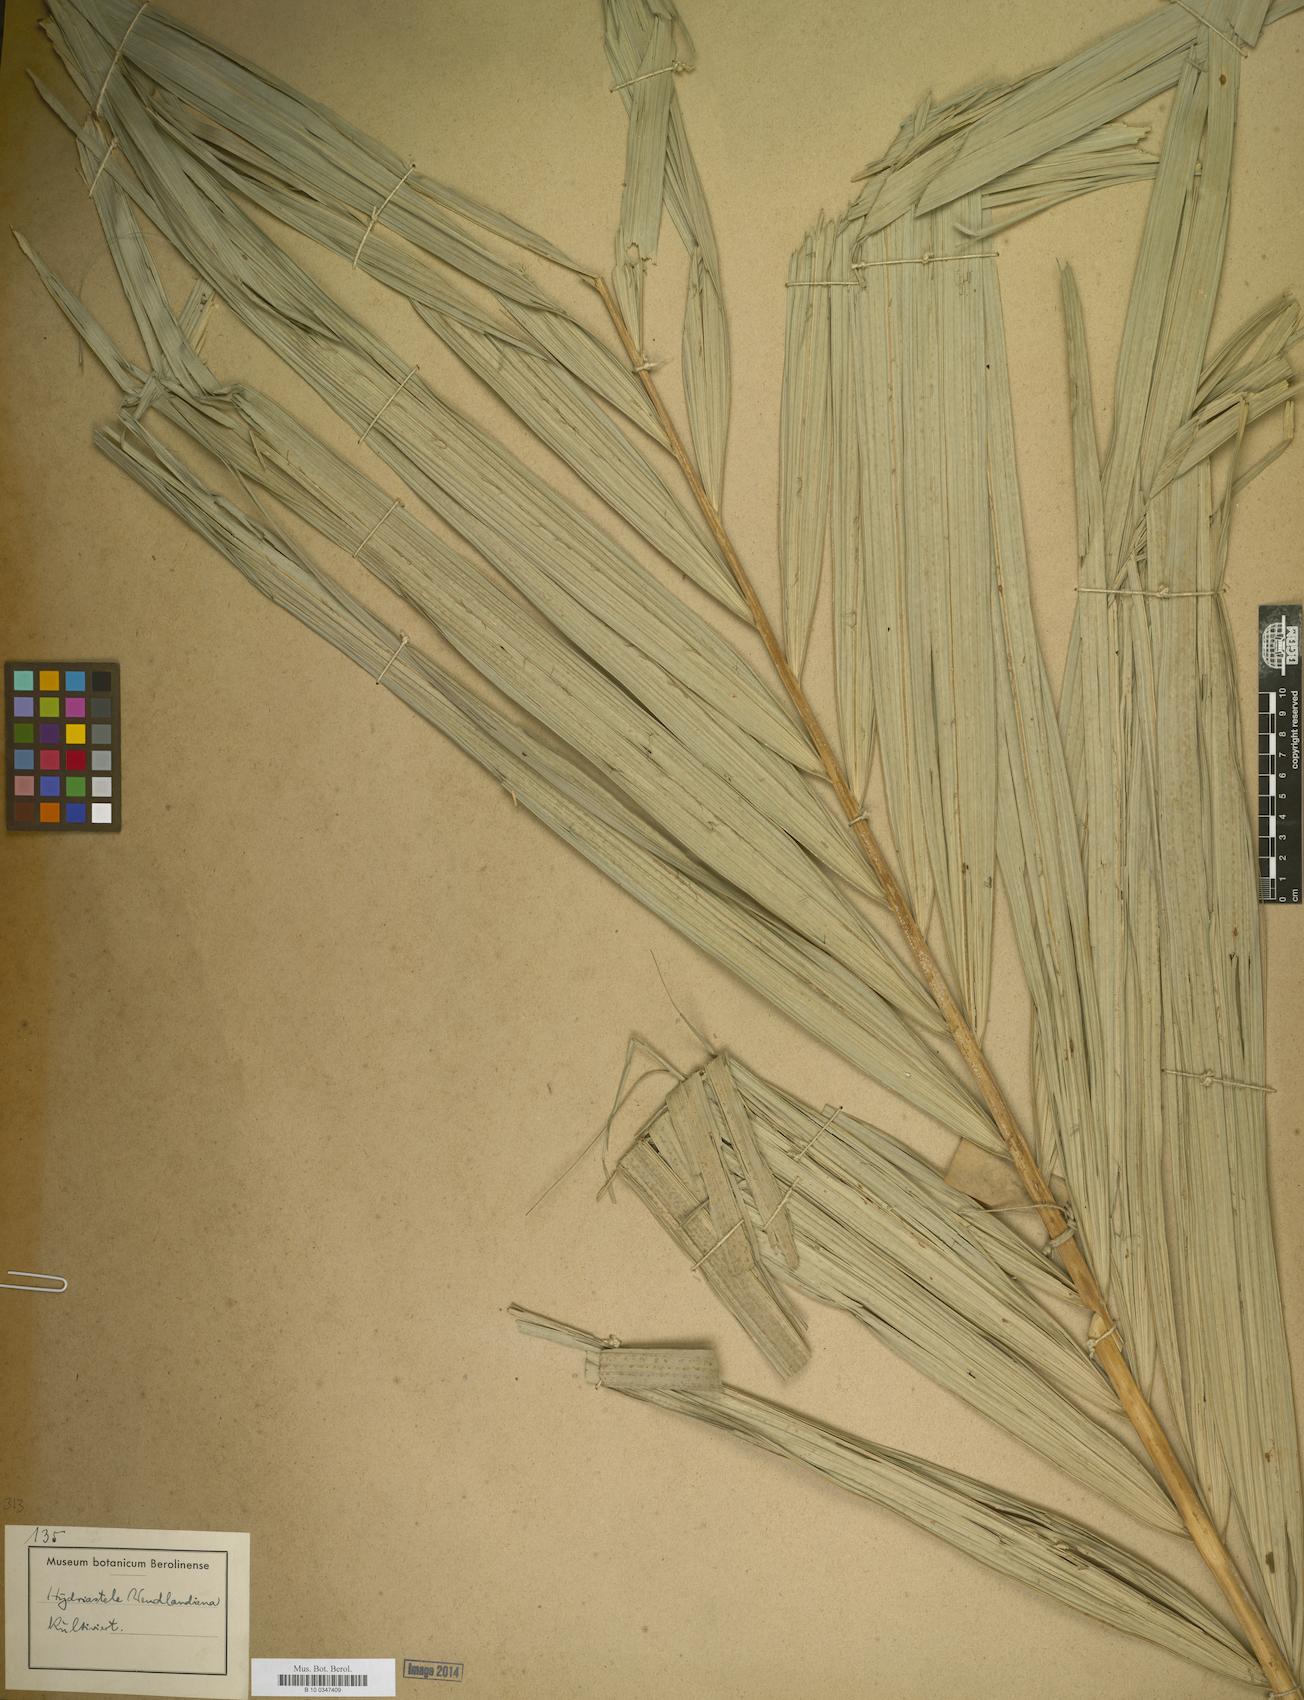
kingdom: Plantae
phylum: Tracheophyta
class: Liliopsida
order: Arecales
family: Arecaceae
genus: Hydriastele
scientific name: Hydriastele
